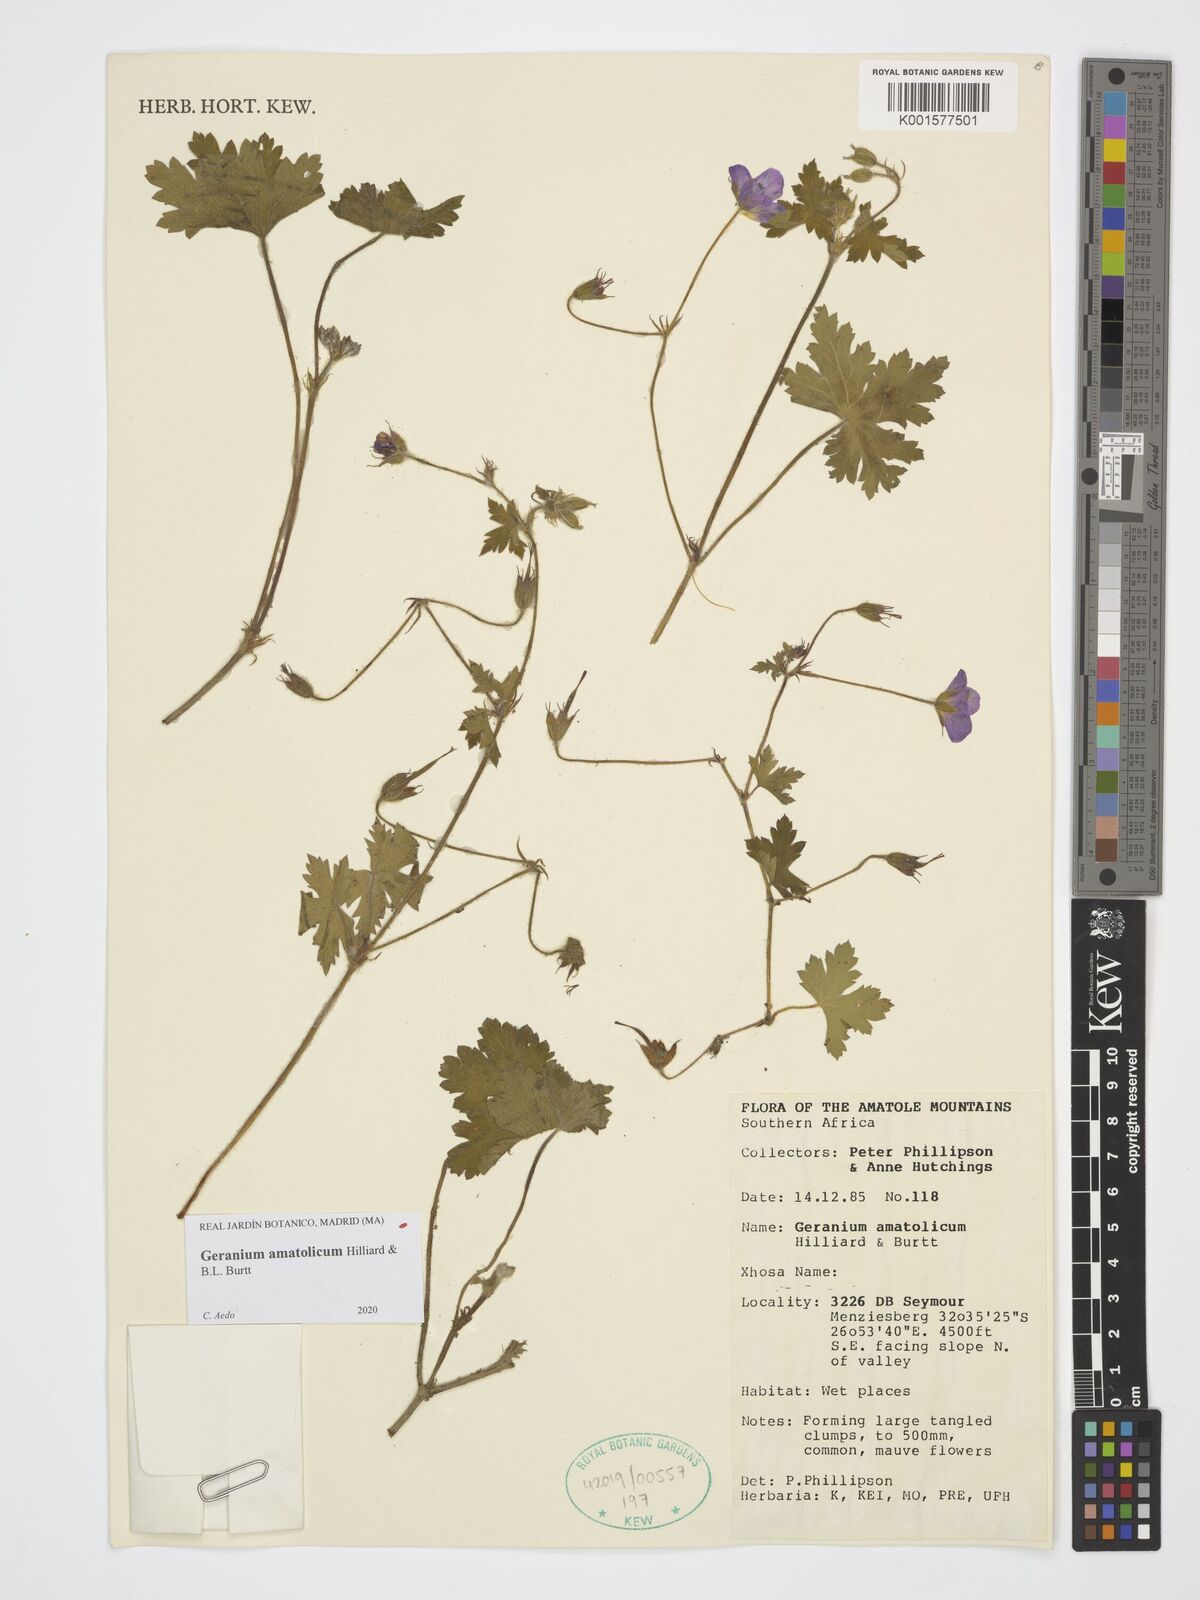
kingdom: Plantae
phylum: Tracheophyta
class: Magnoliopsida
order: Geraniales
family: Geraniaceae
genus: Geranium
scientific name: Geranium amatolicum
